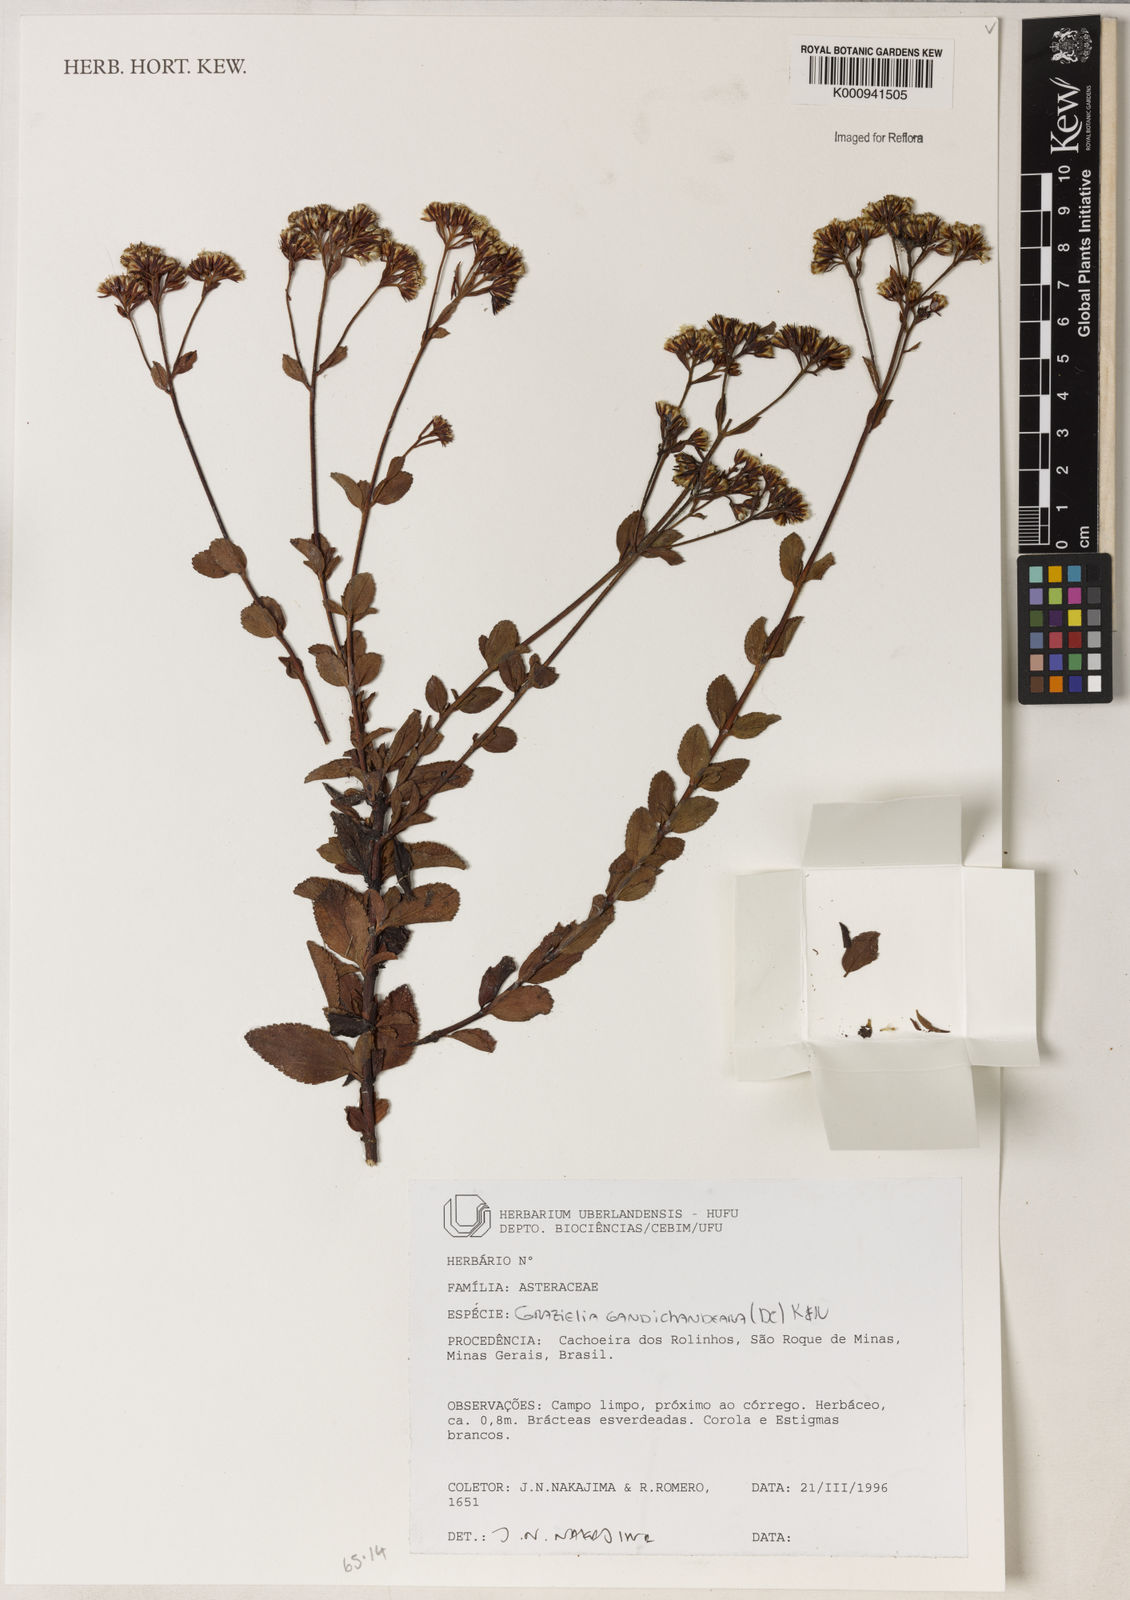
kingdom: Plantae
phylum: Tracheophyta
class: Magnoliopsida
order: Asterales
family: Asteraceae
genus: Grazielia
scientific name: Grazielia
